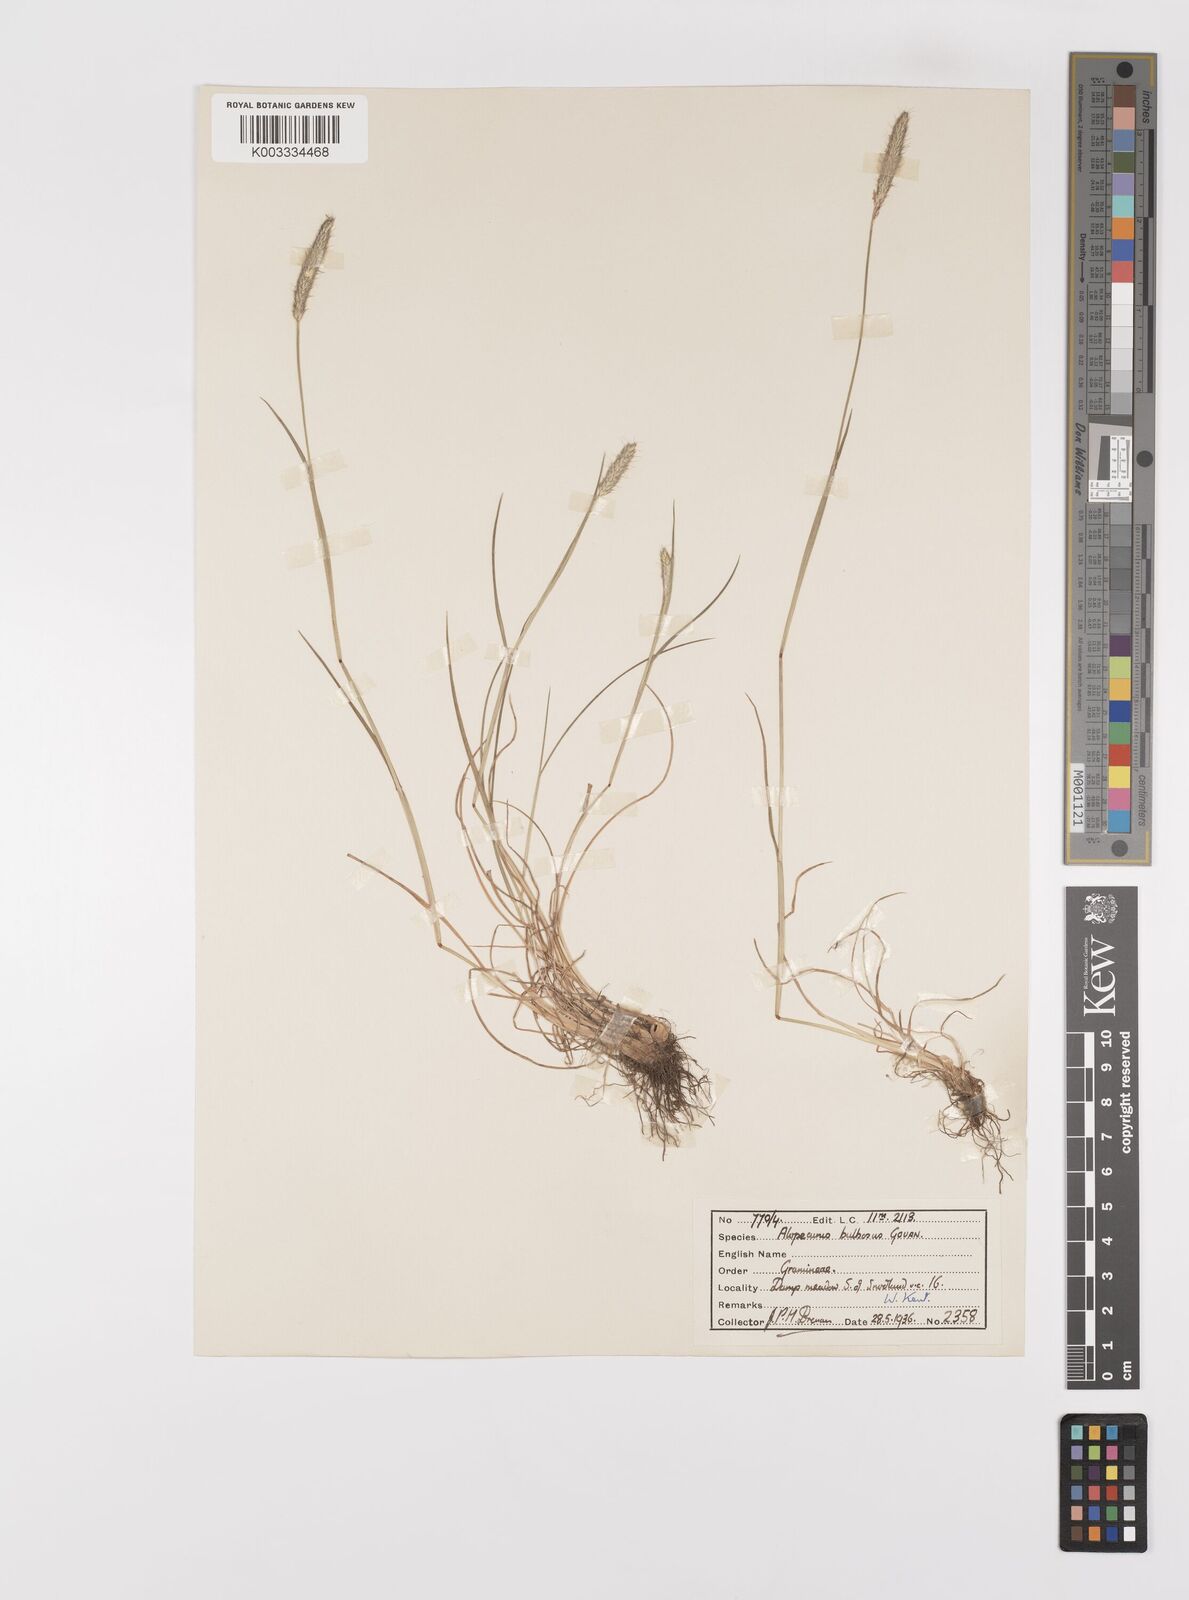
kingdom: Plantae
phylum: Tracheophyta
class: Liliopsida
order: Poales
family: Poaceae
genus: Alopecurus
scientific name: Alopecurus bulbosus
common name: Bulbous foxtail
